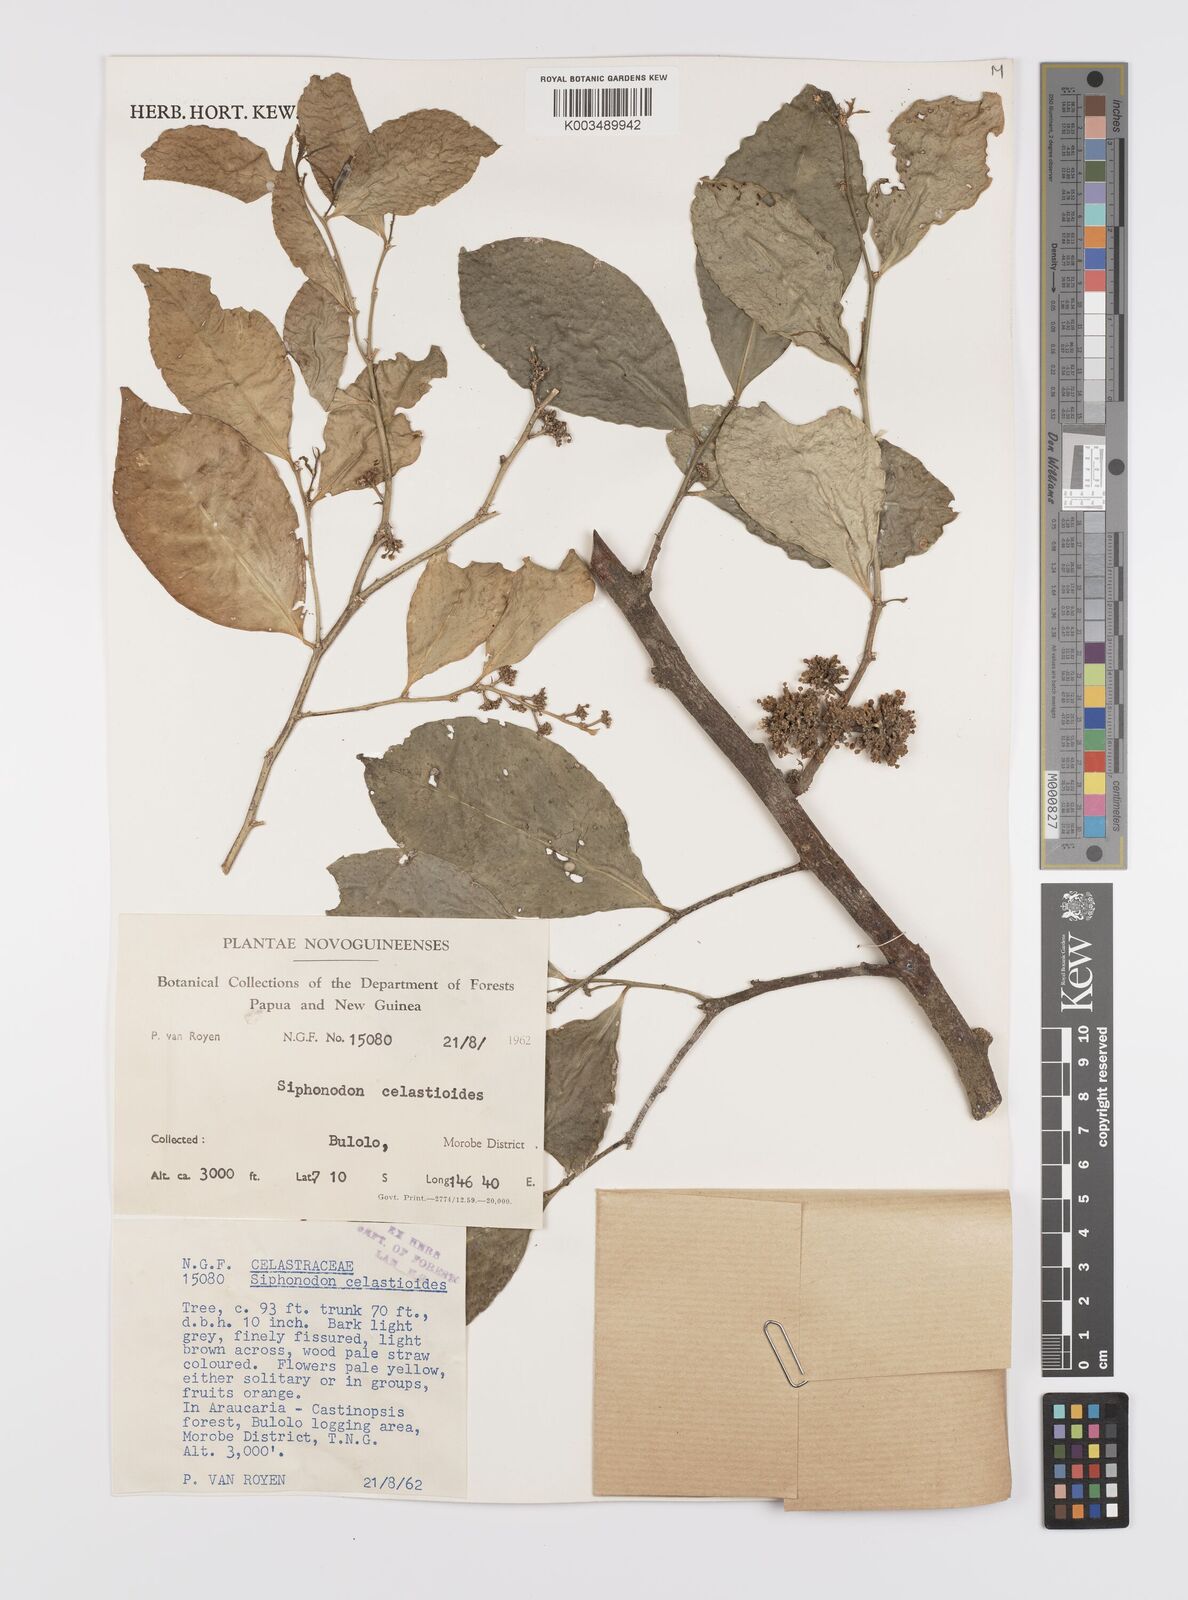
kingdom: Plantae
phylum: Tracheophyta
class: Magnoliopsida
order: Celastrales
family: Celastraceae
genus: Siphonodon
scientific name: Siphonodon celastrineus
